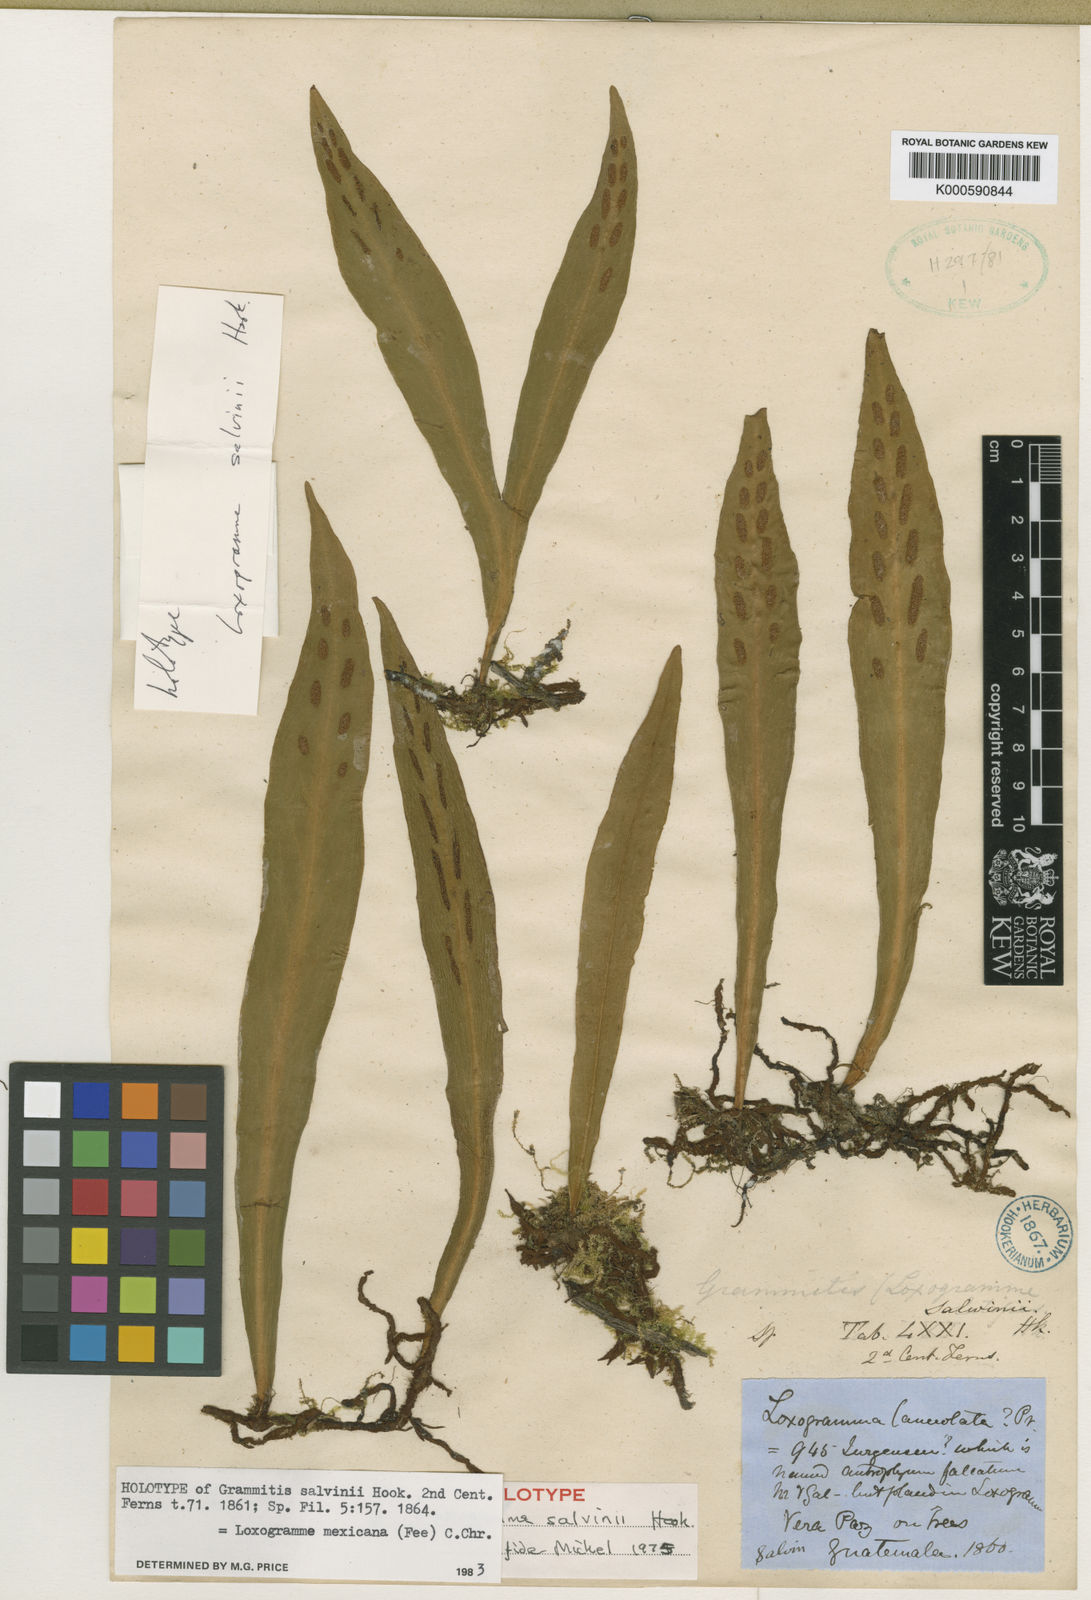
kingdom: Plantae
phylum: Tracheophyta
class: Polypodiopsida
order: Polypodiales
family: Polypodiaceae
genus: Loxogramme
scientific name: Loxogramme mexicana
